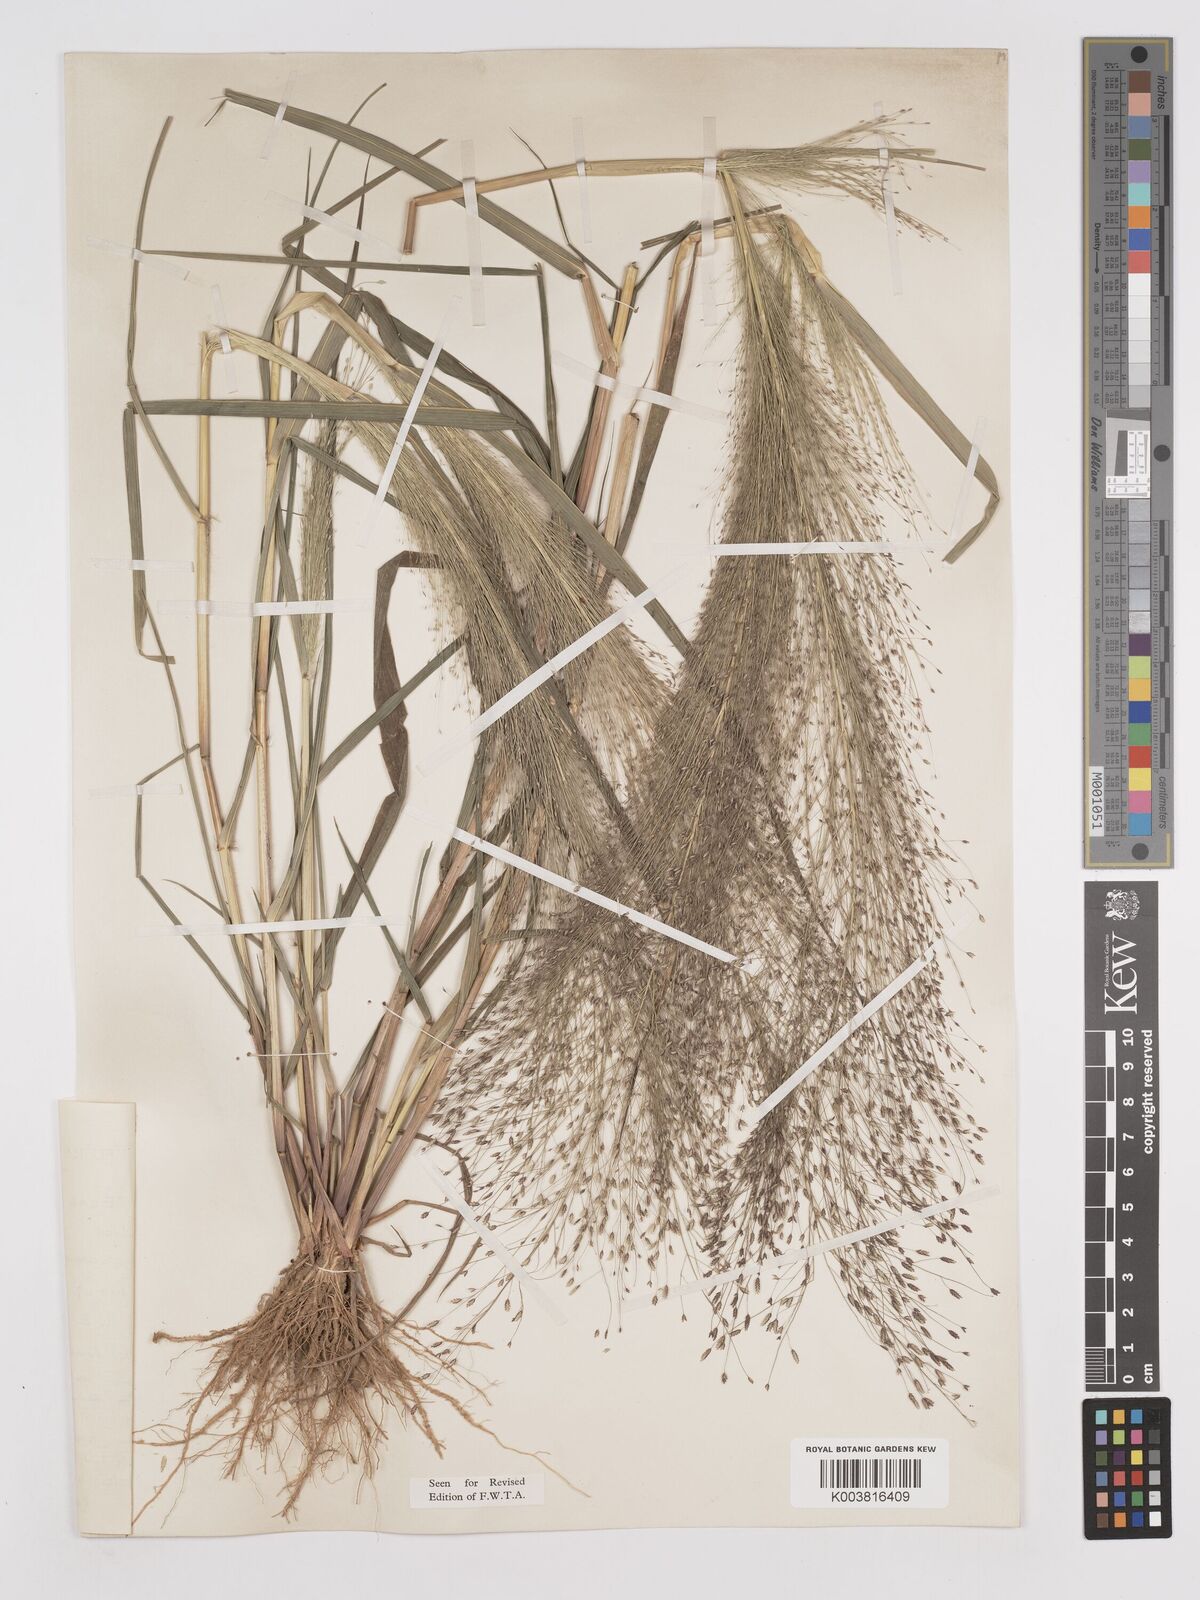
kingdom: Plantae
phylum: Tracheophyta
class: Liliopsida
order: Poales
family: Poaceae
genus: Eragrostis
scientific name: Eragrostis aspera
